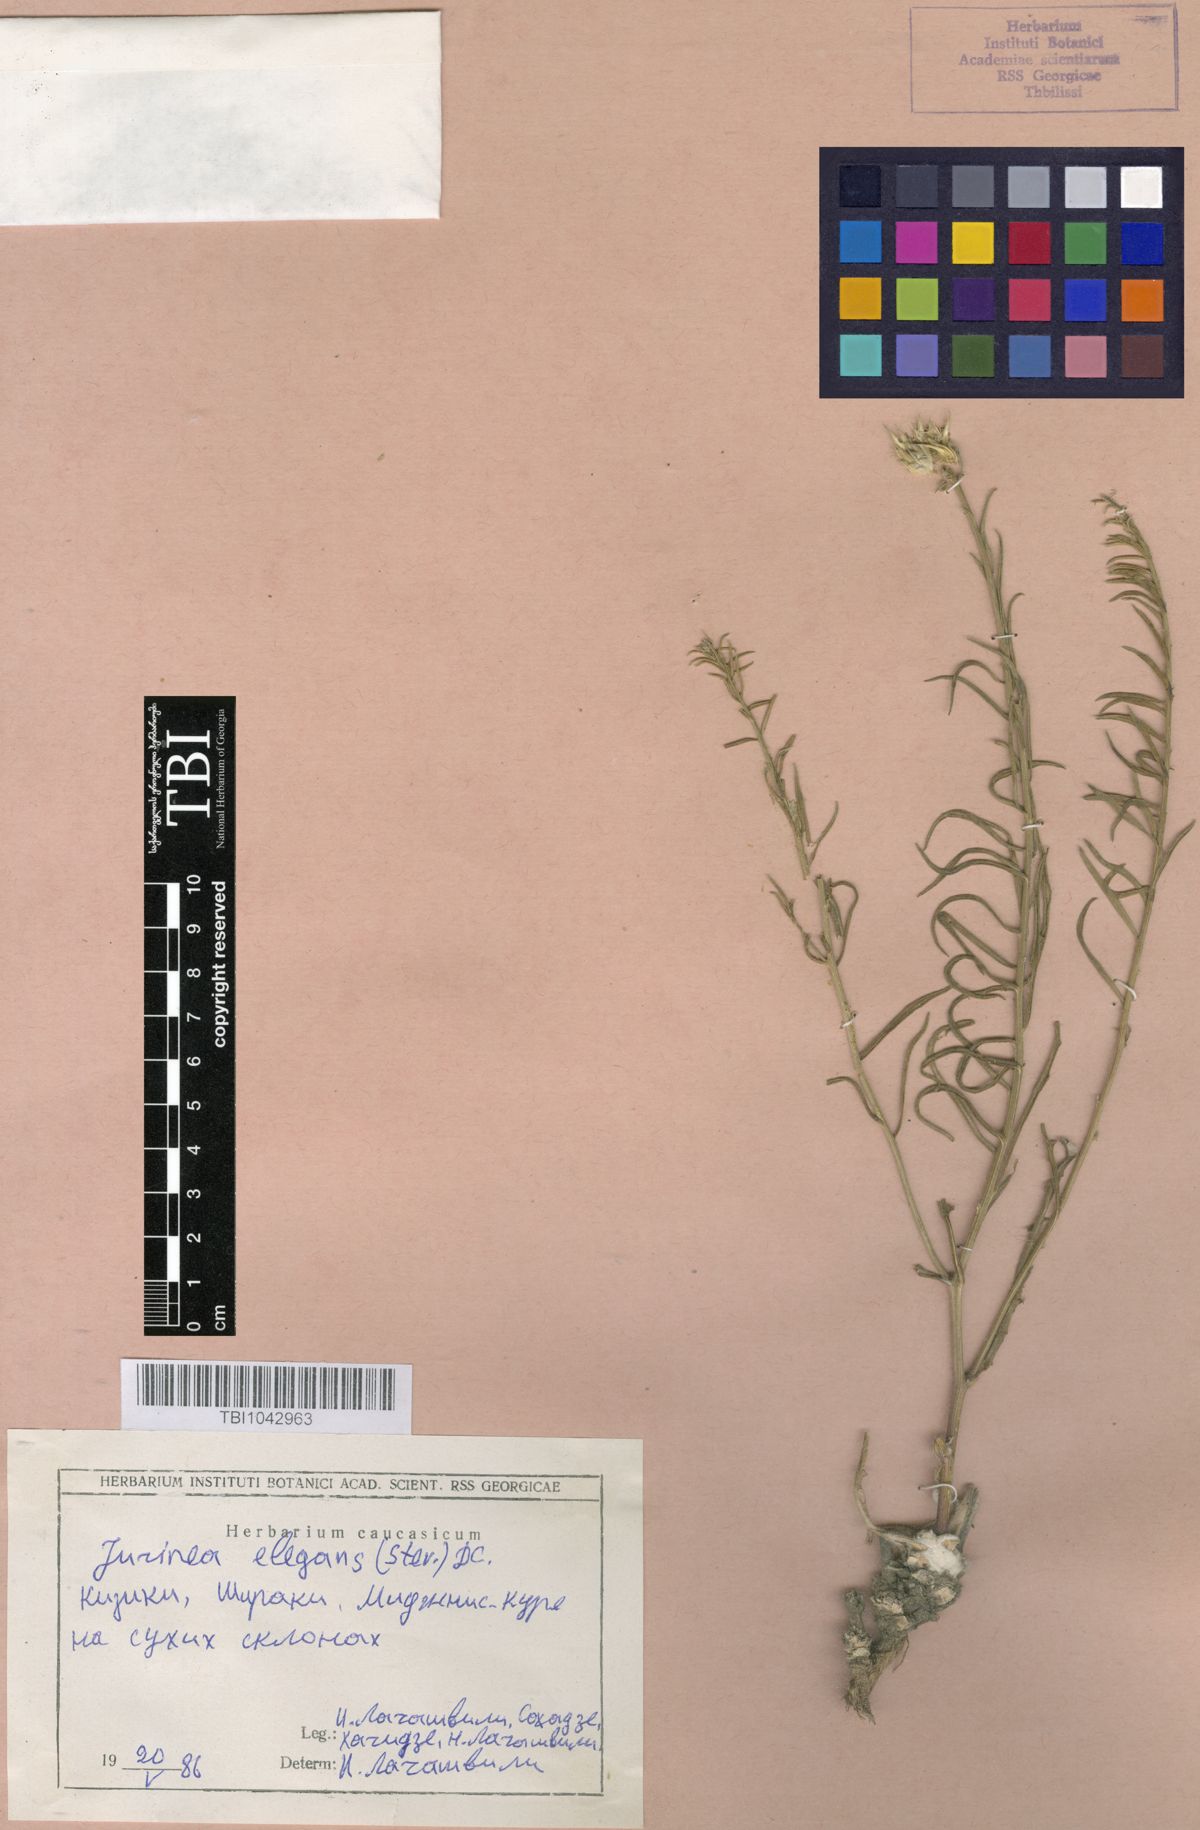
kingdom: Plantae
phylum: Tracheophyta
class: Magnoliopsida
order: Asterales
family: Asteraceae
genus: Jurinea
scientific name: Jurinea elegans
